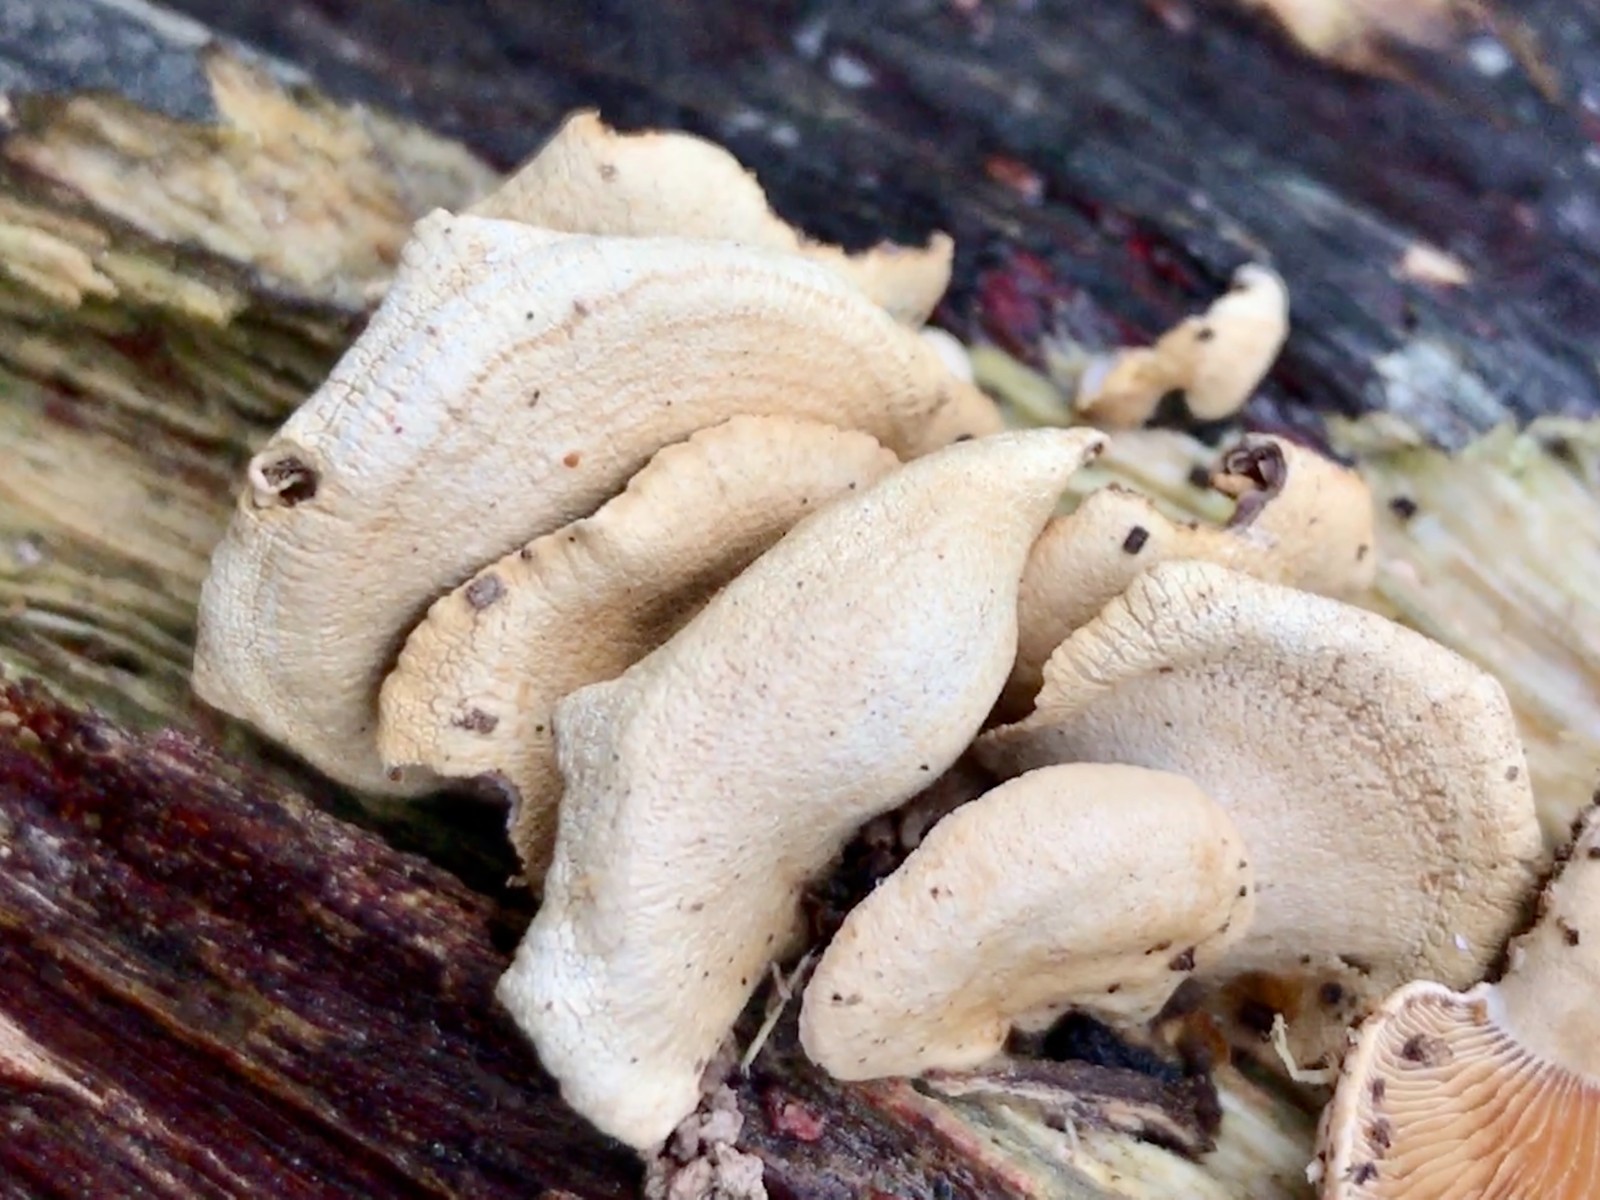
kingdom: Fungi
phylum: Basidiomycota
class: Agaricomycetes
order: Agaricales
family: Mycenaceae
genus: Panellus
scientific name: Panellus stipticus
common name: kliddet epaulethat
